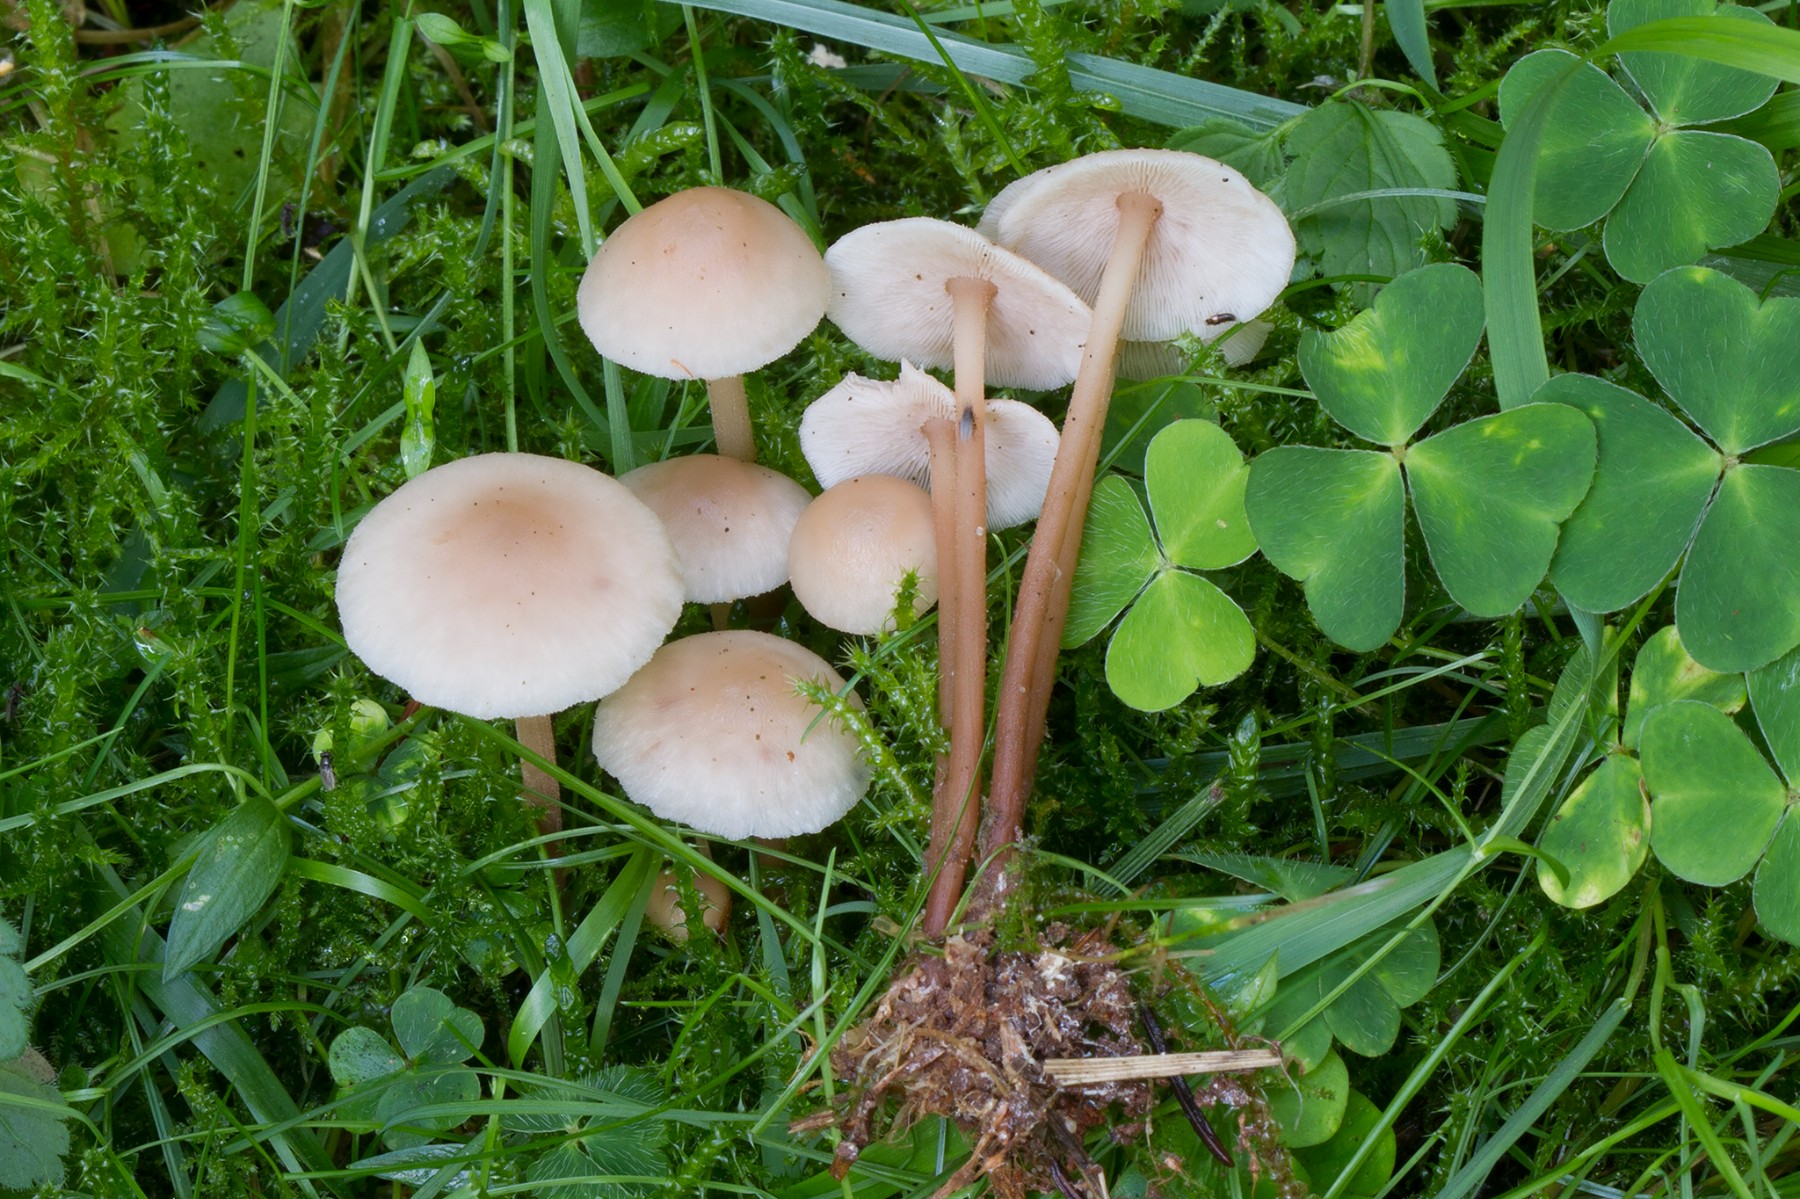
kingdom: Fungi
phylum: Basidiomycota
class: Agaricomycetes
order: Agaricales
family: Omphalotaceae
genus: Collybiopsis
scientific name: Collybiopsis confluens
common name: knippe-fladhat
